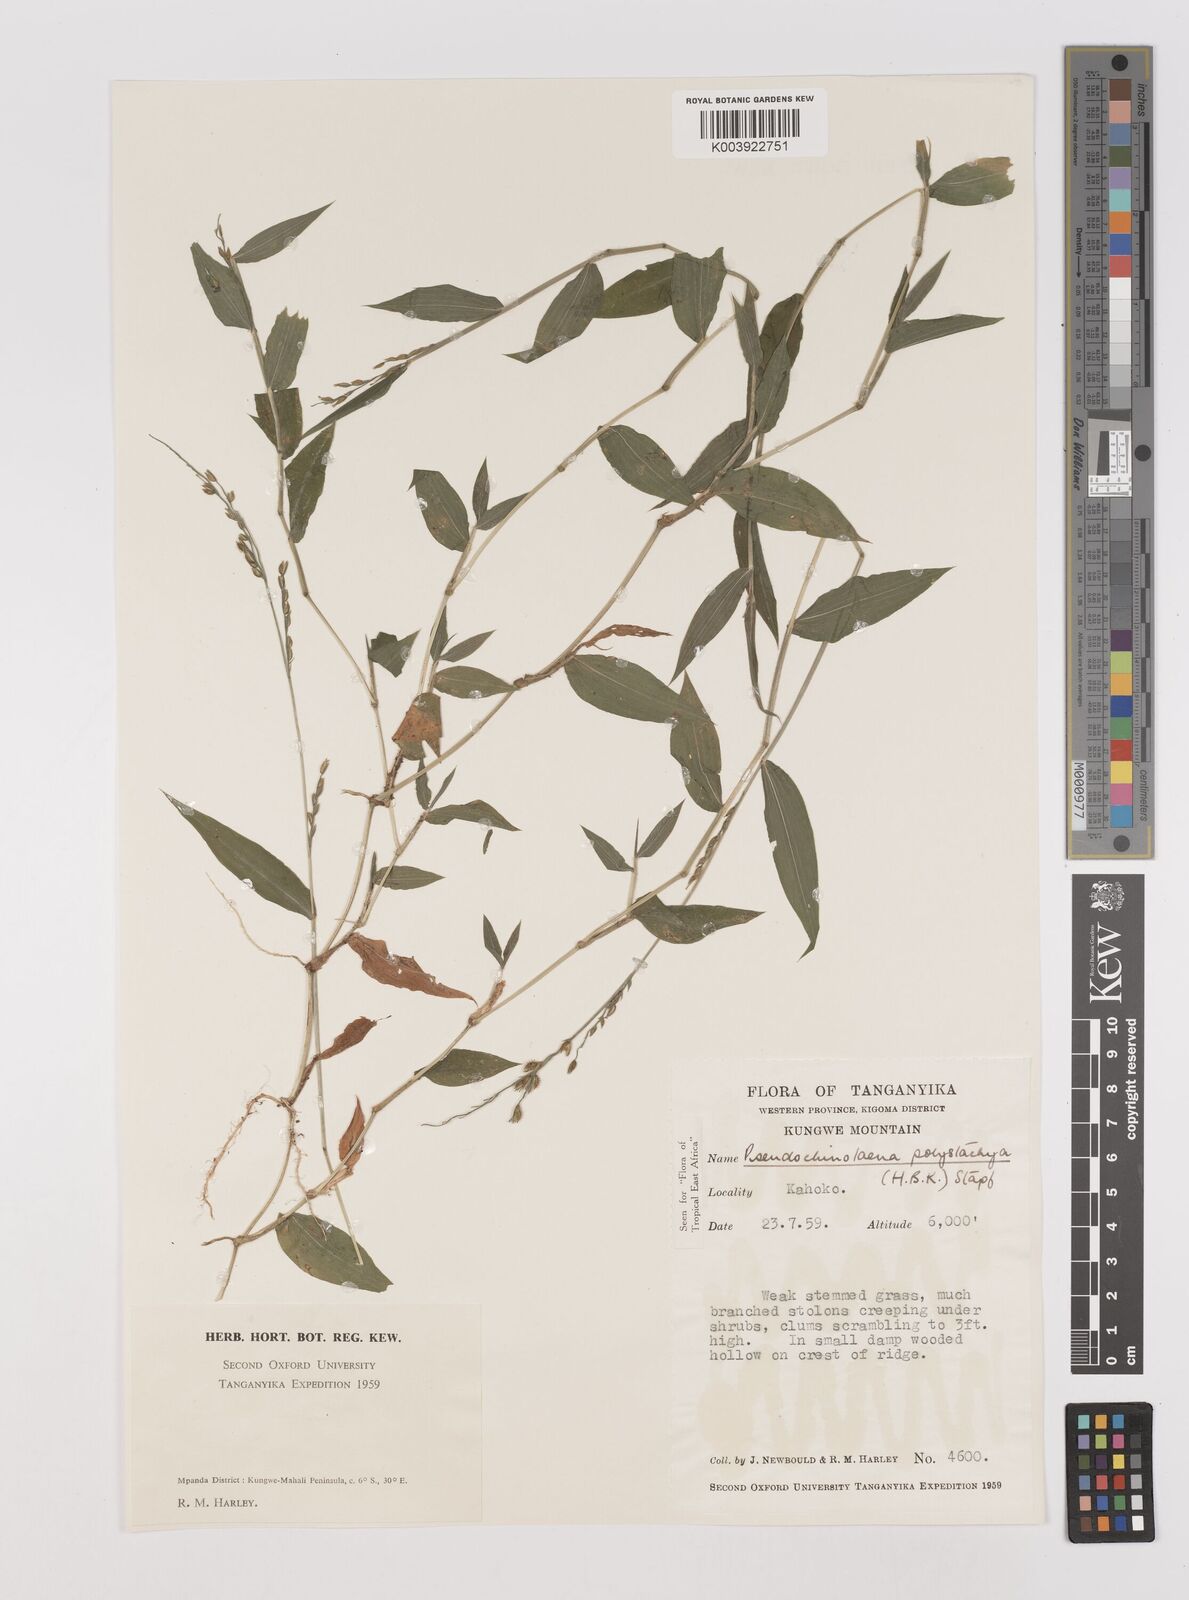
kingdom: Plantae
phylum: Tracheophyta
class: Liliopsida
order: Poales
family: Poaceae
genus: Pseudechinolaena
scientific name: Pseudechinolaena polystachya
